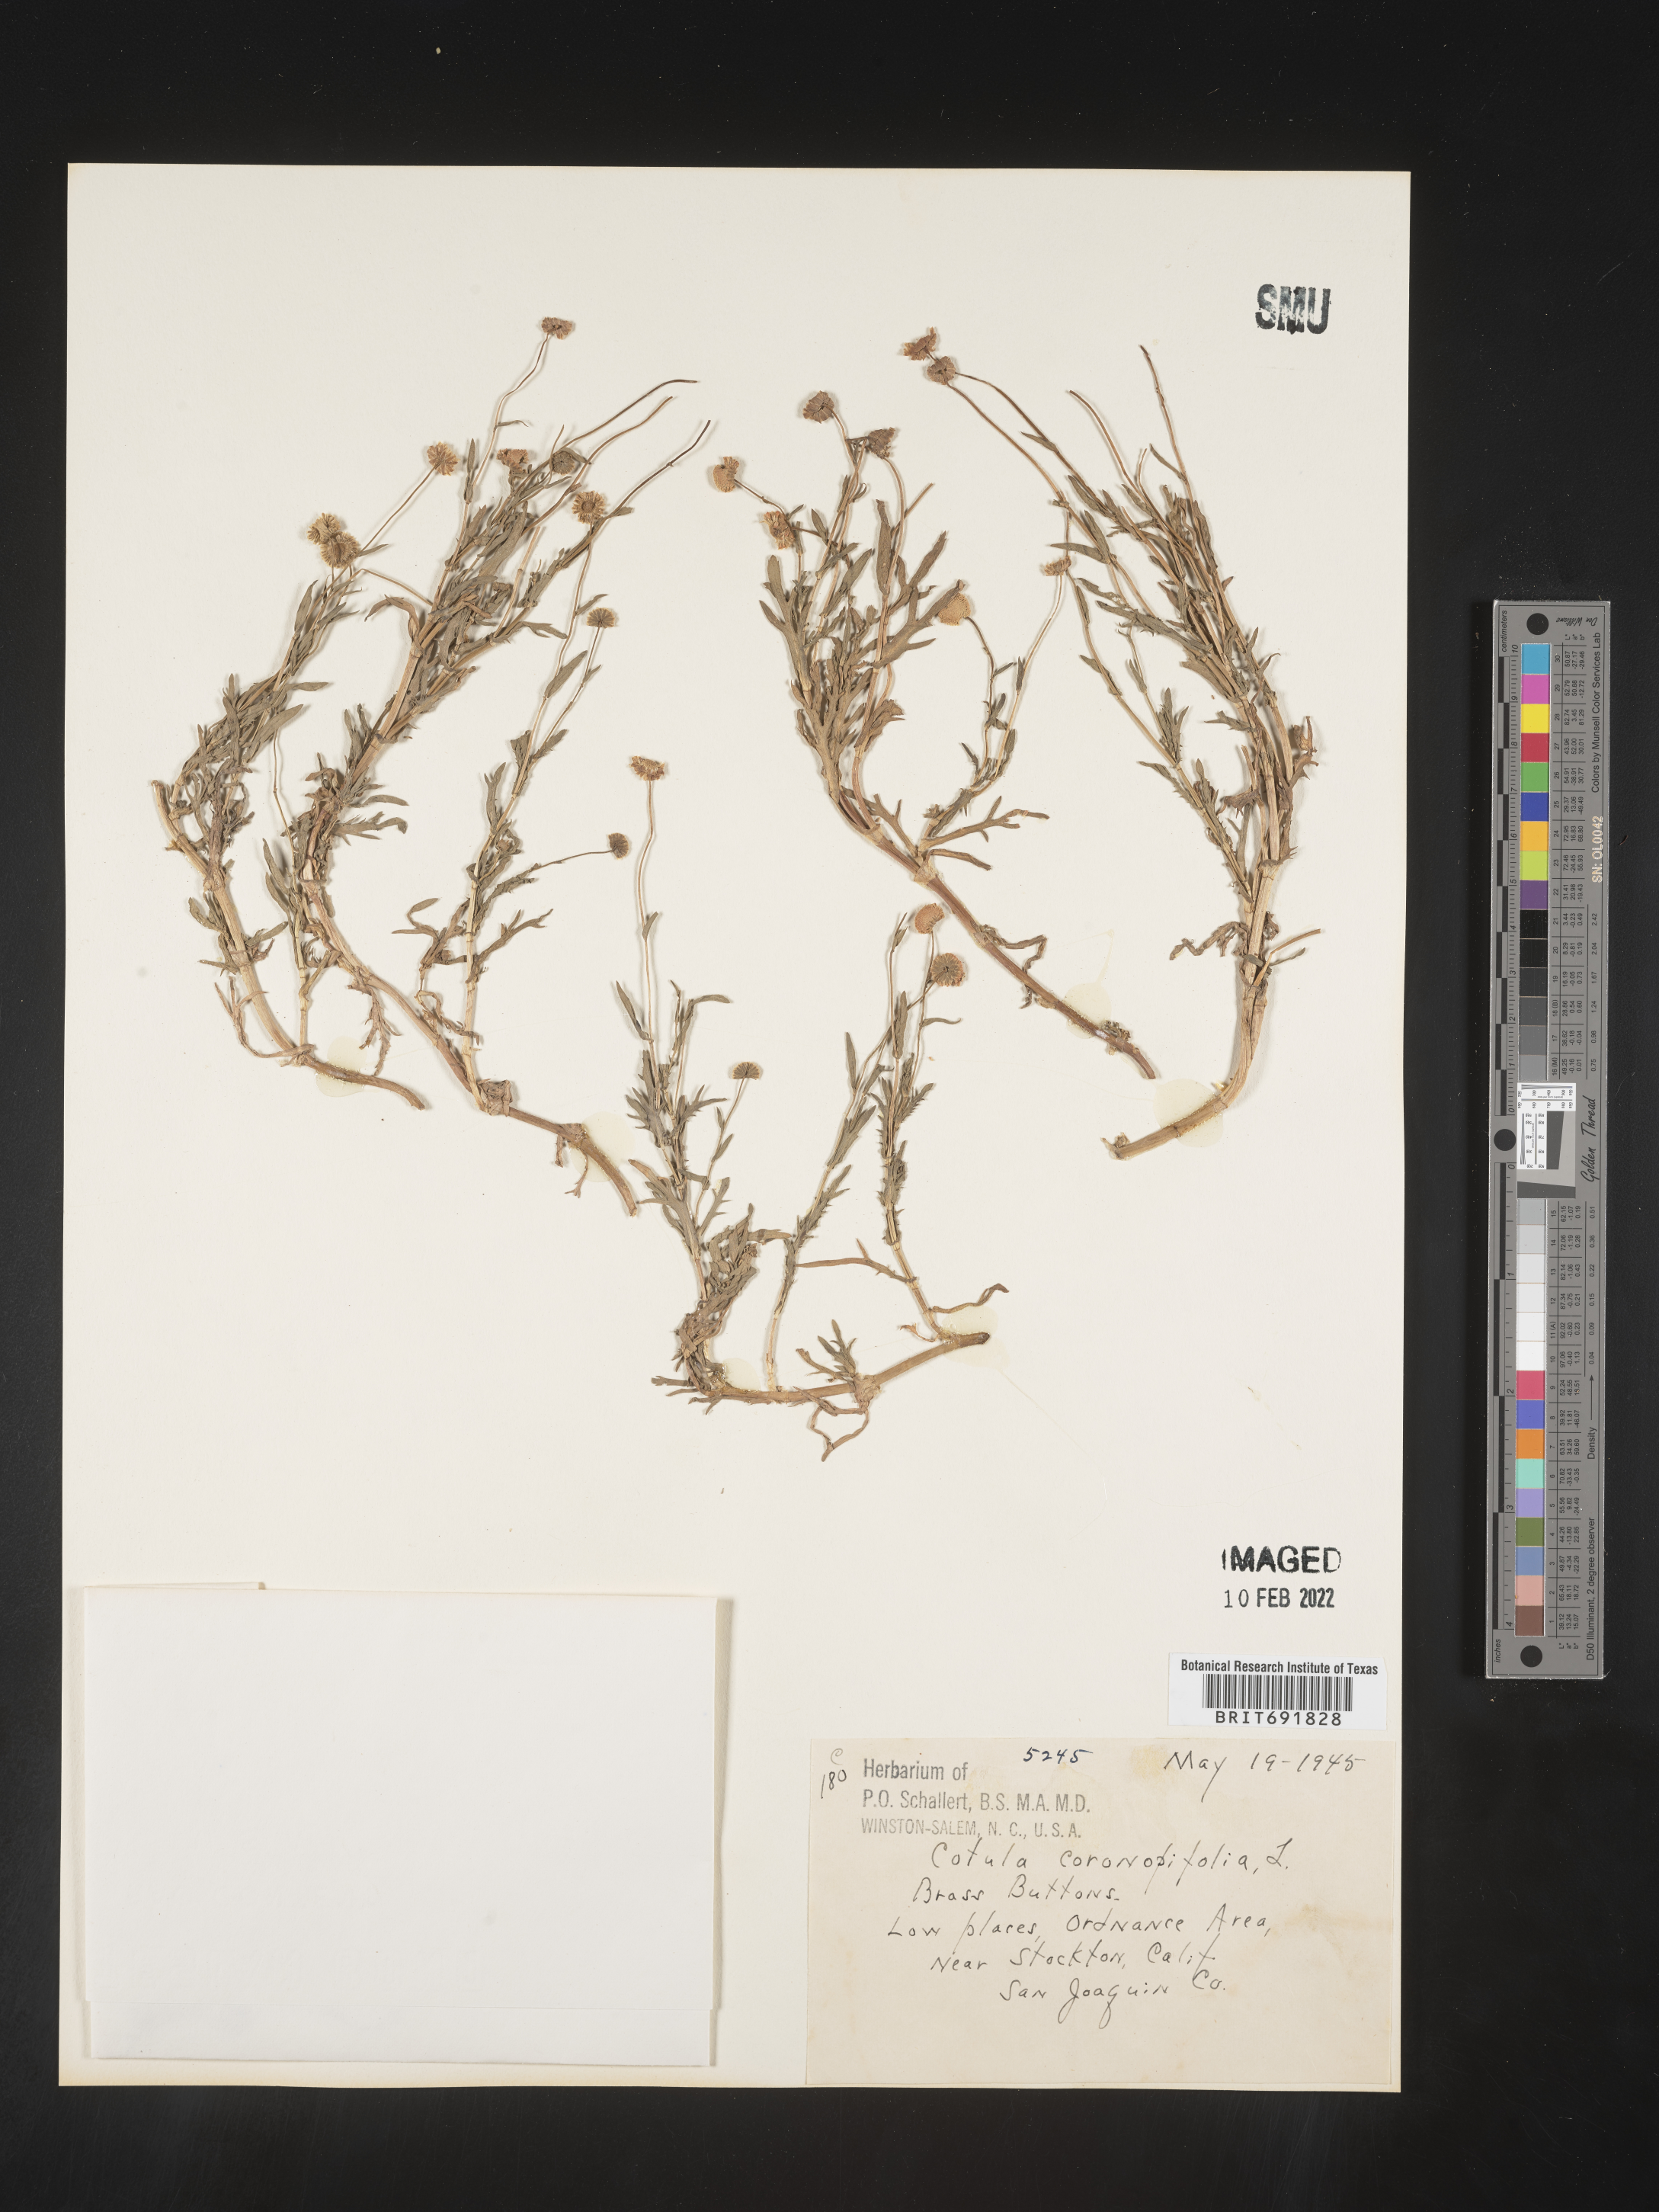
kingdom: Plantae
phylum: Tracheophyta
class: Magnoliopsida
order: Asterales
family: Asteraceae
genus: Cotula
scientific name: Cotula
